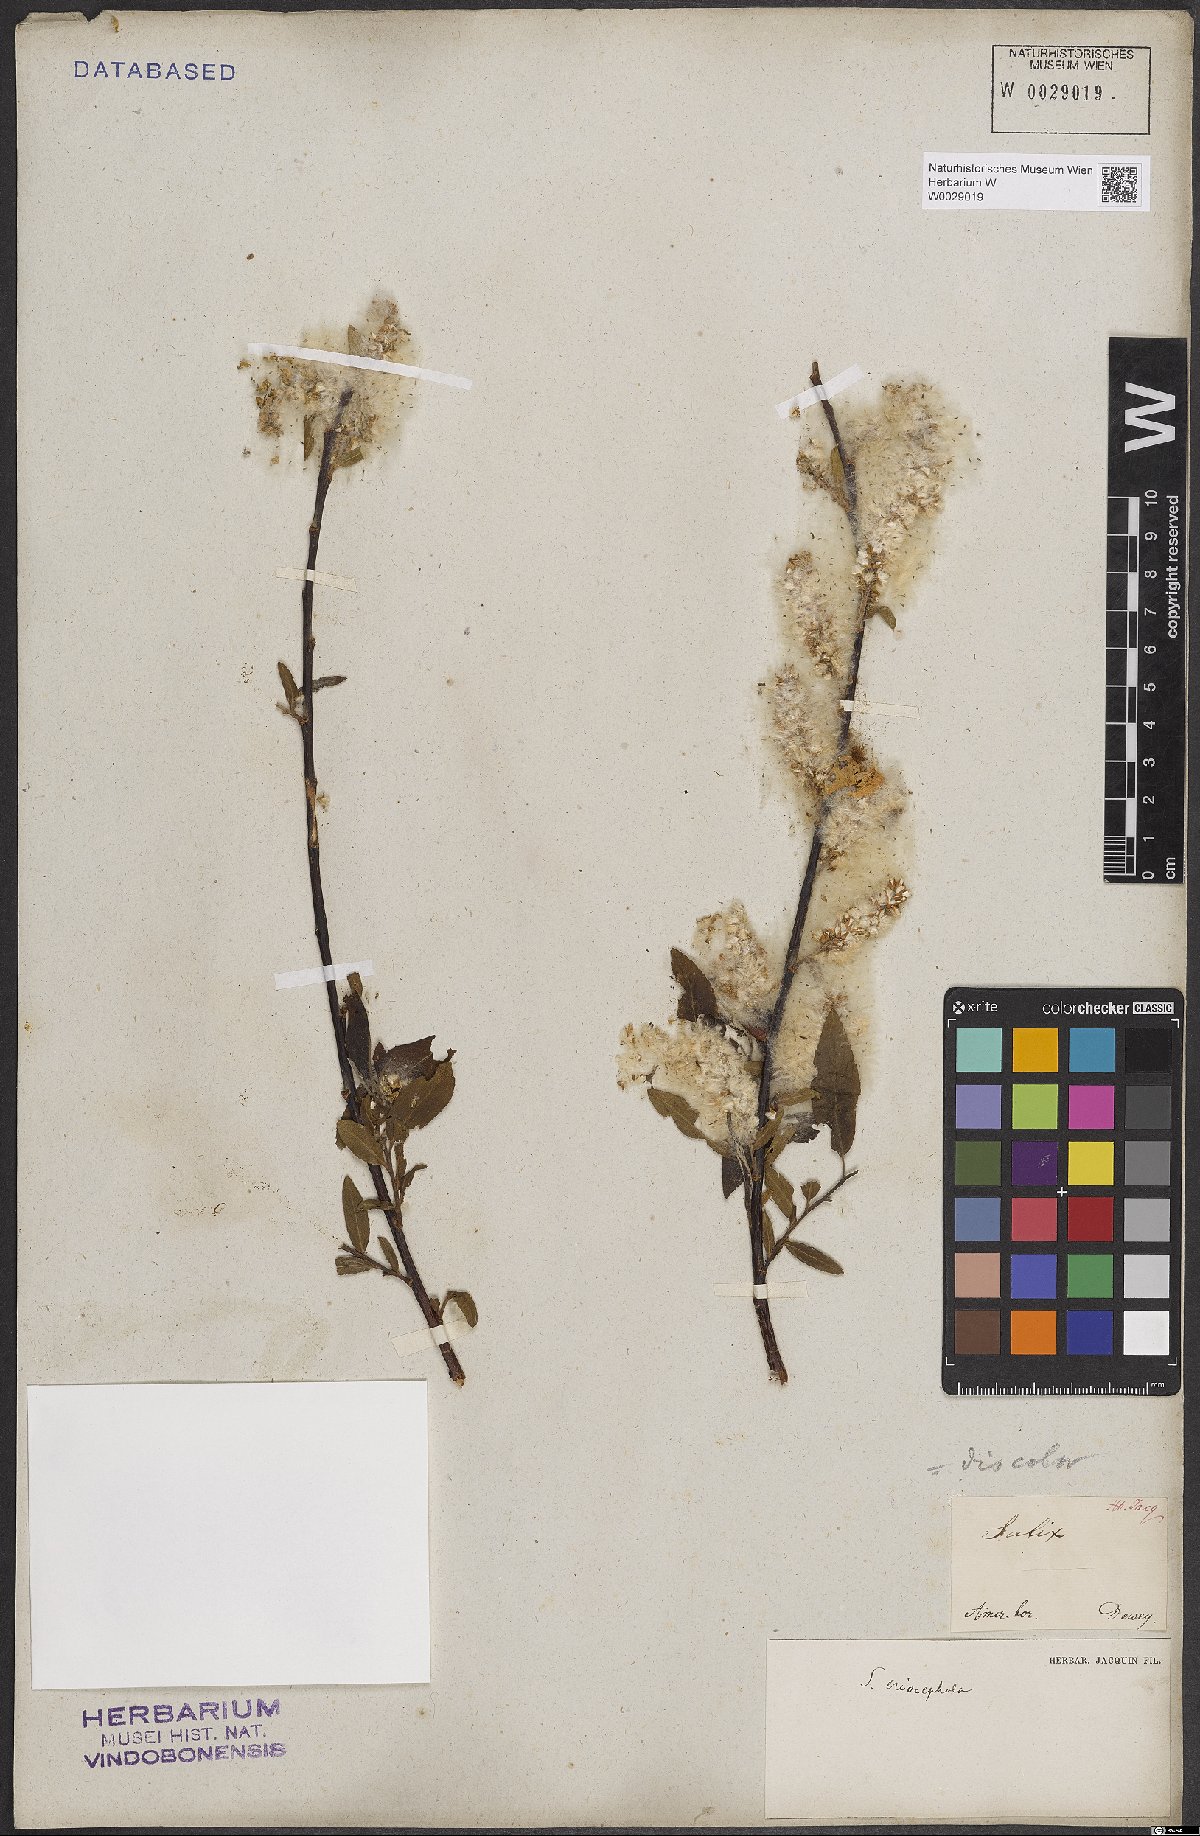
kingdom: Plantae
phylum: Tracheophyta
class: Magnoliopsida
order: Malpighiales
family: Salicaceae
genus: Salix
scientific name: Salix discolor
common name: Glaucous willow
